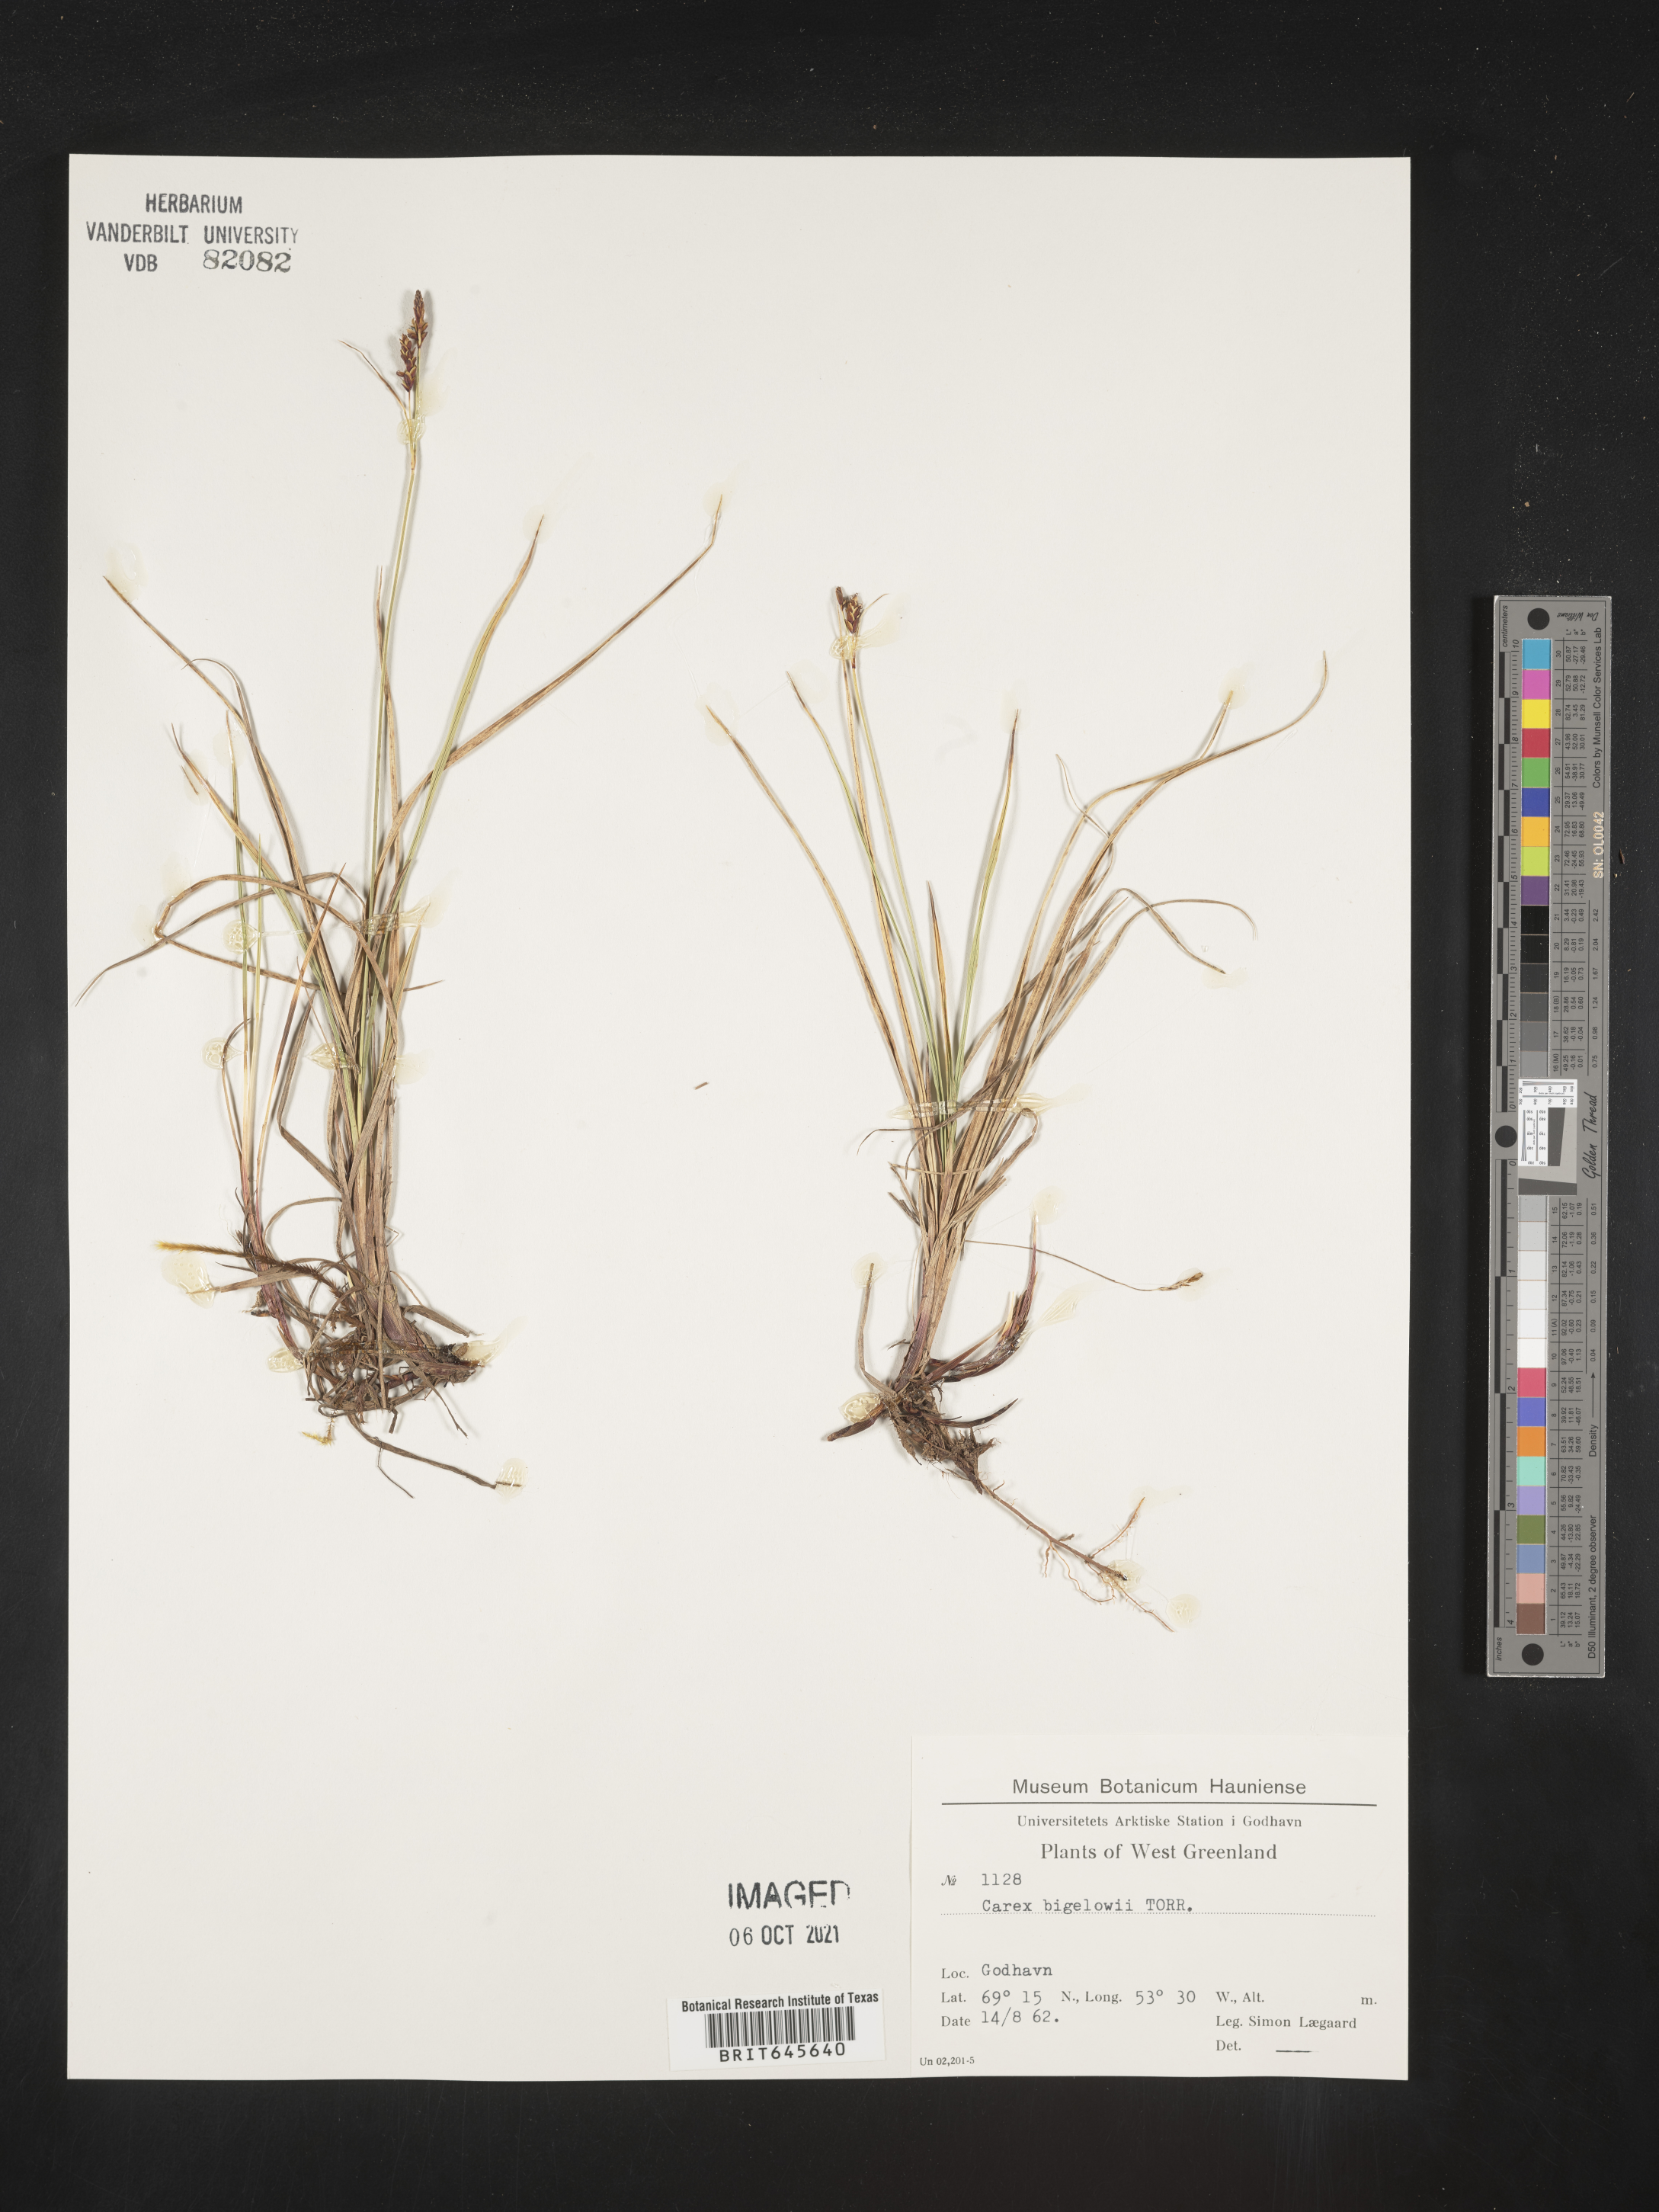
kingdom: Plantae
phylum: Tracheophyta
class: Liliopsida
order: Poales
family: Cyperaceae
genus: Carex
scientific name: Carex bigelowii
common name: Stiff sedge
